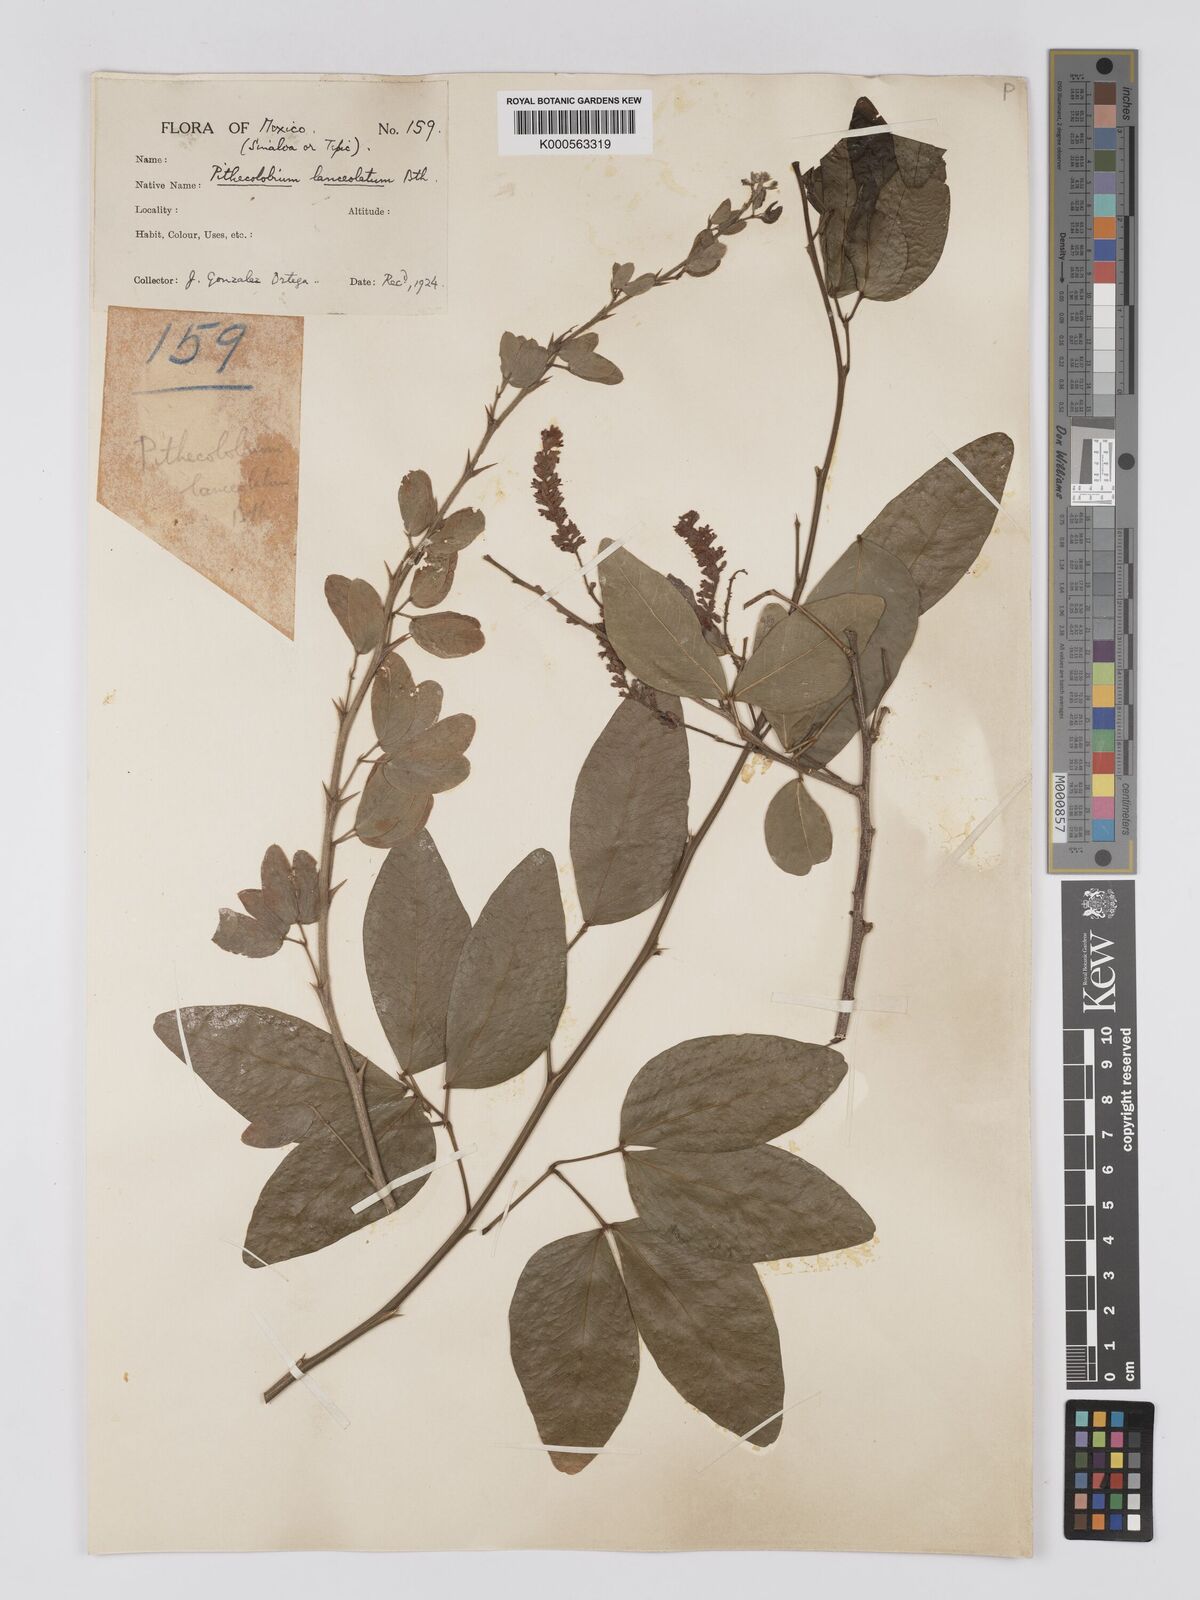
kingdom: Plantae
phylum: Tracheophyta
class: Magnoliopsida
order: Fabales
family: Fabaceae
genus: Pithecellobium
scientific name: Pithecellobium lanceolatum
